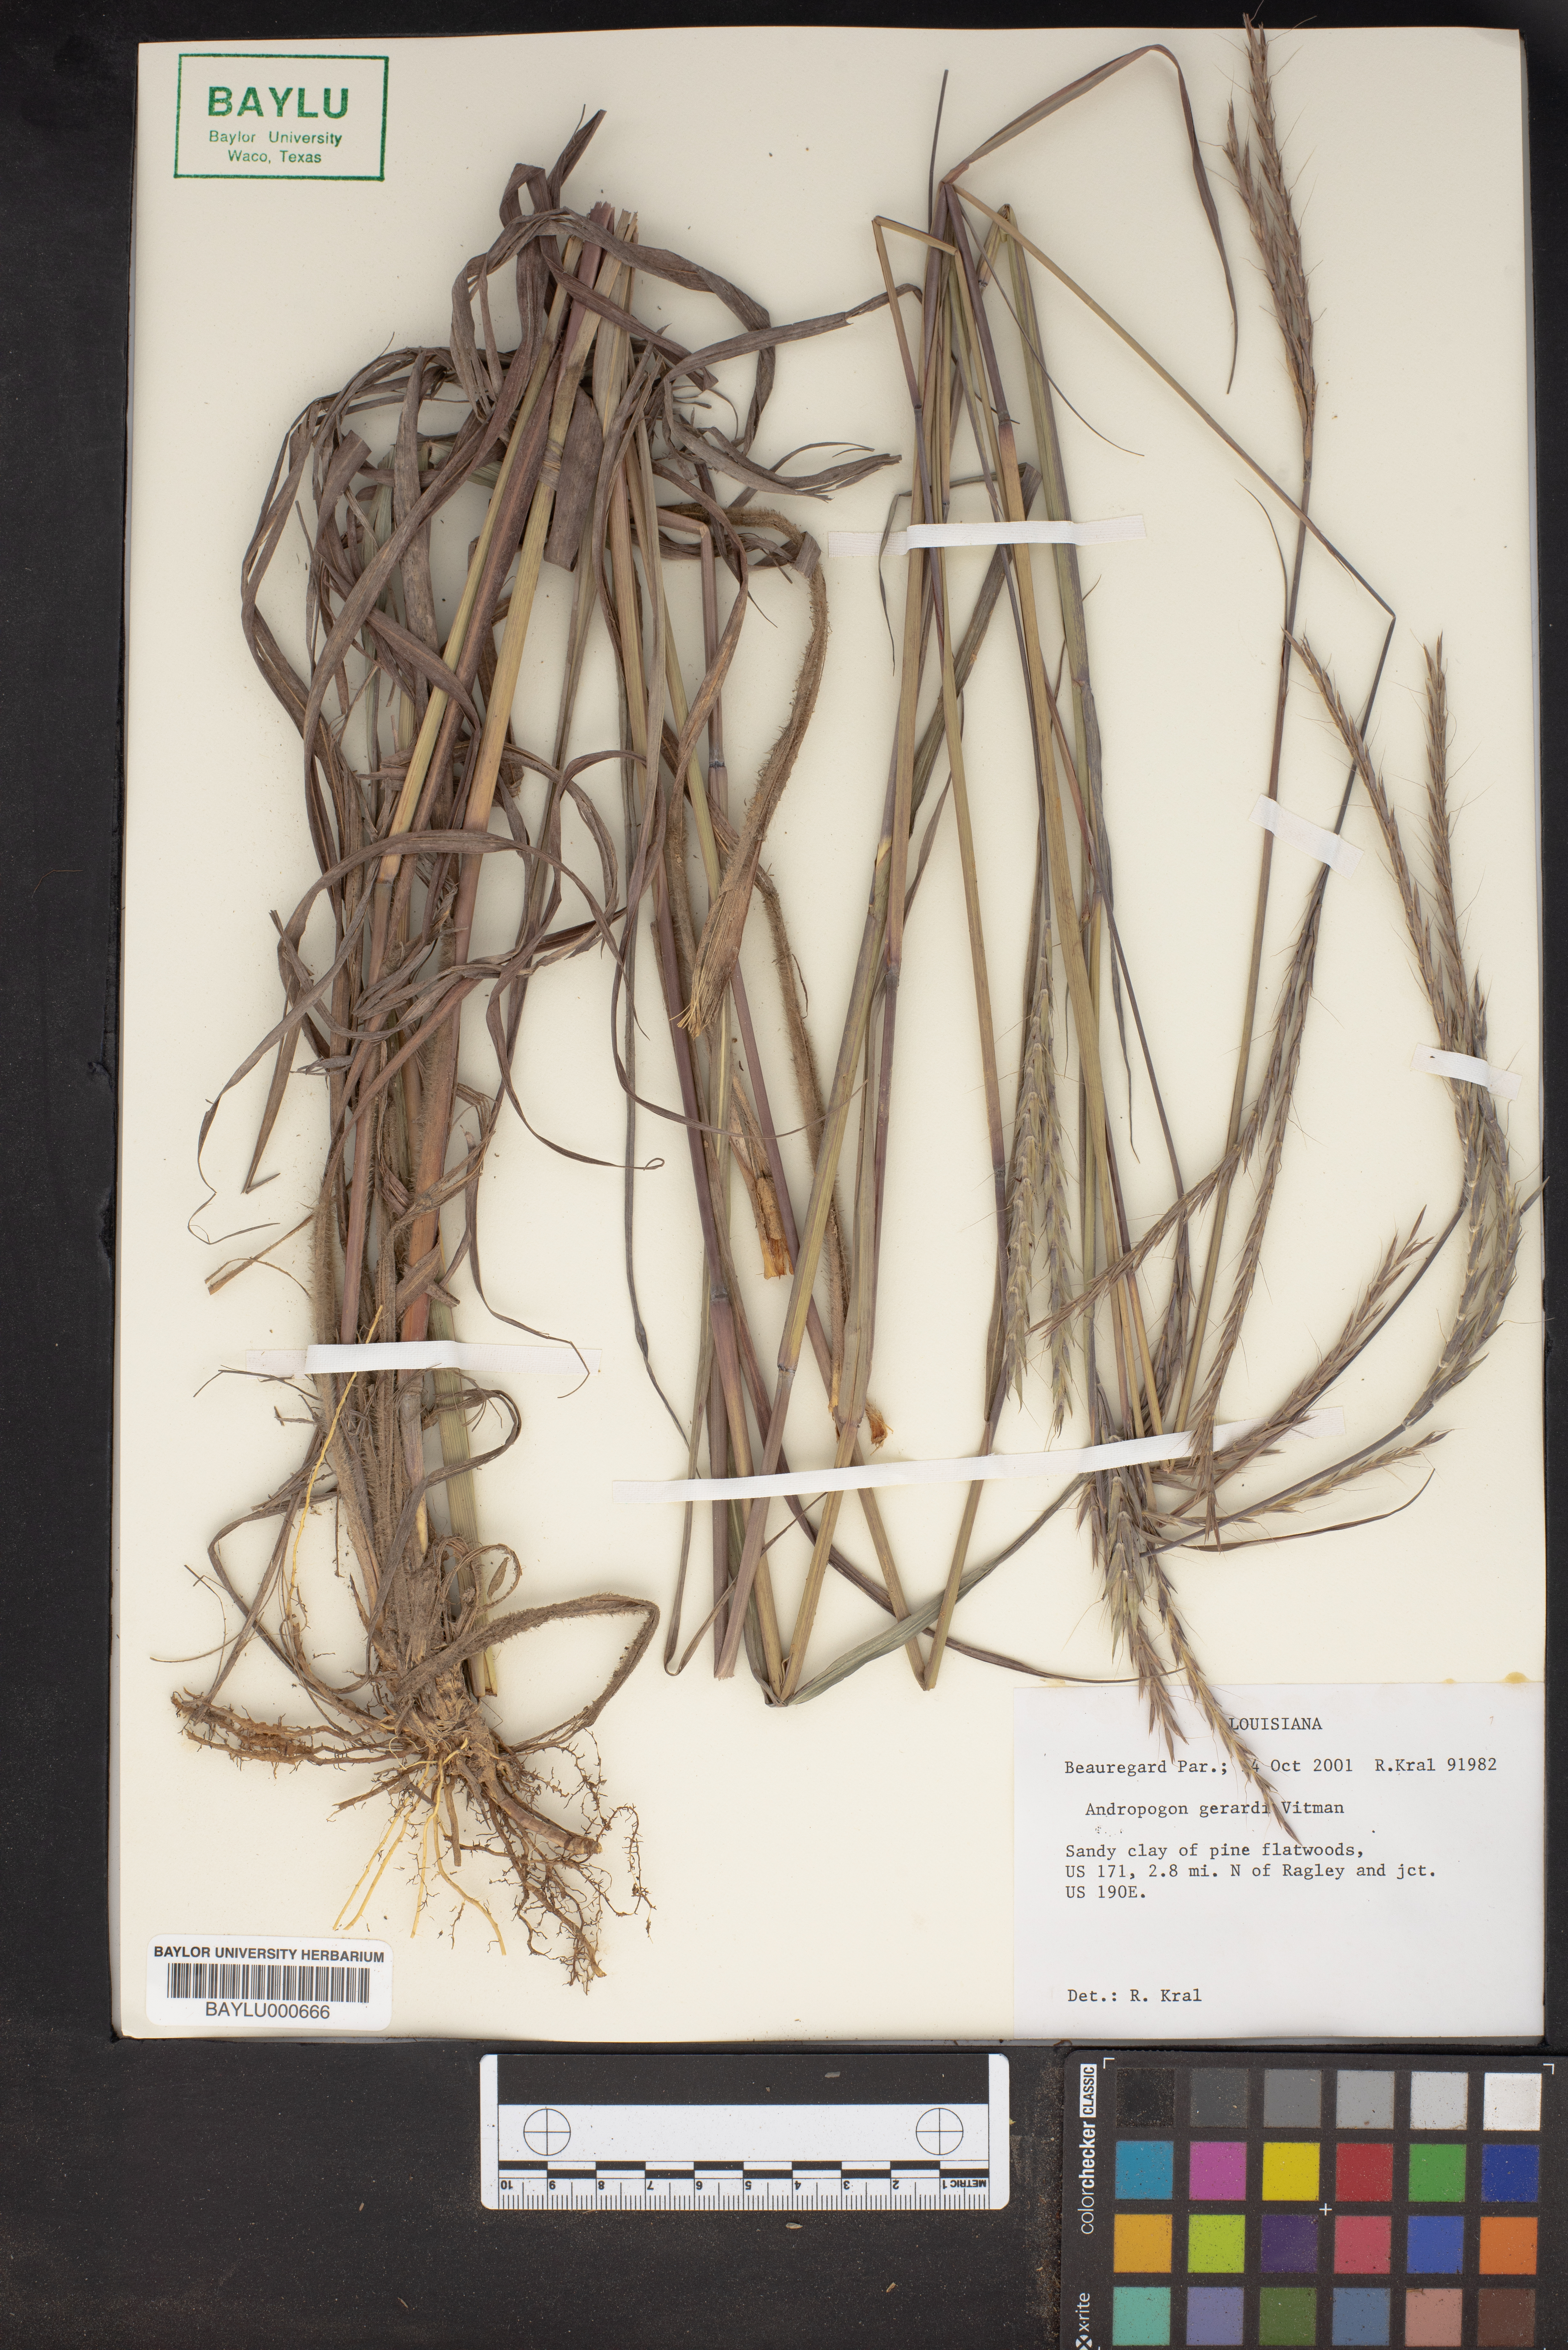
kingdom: Plantae
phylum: Tracheophyta
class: Liliopsida
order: Poales
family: Poaceae
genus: Andropogon
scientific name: Andropogon gerardi
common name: Big bluestem
